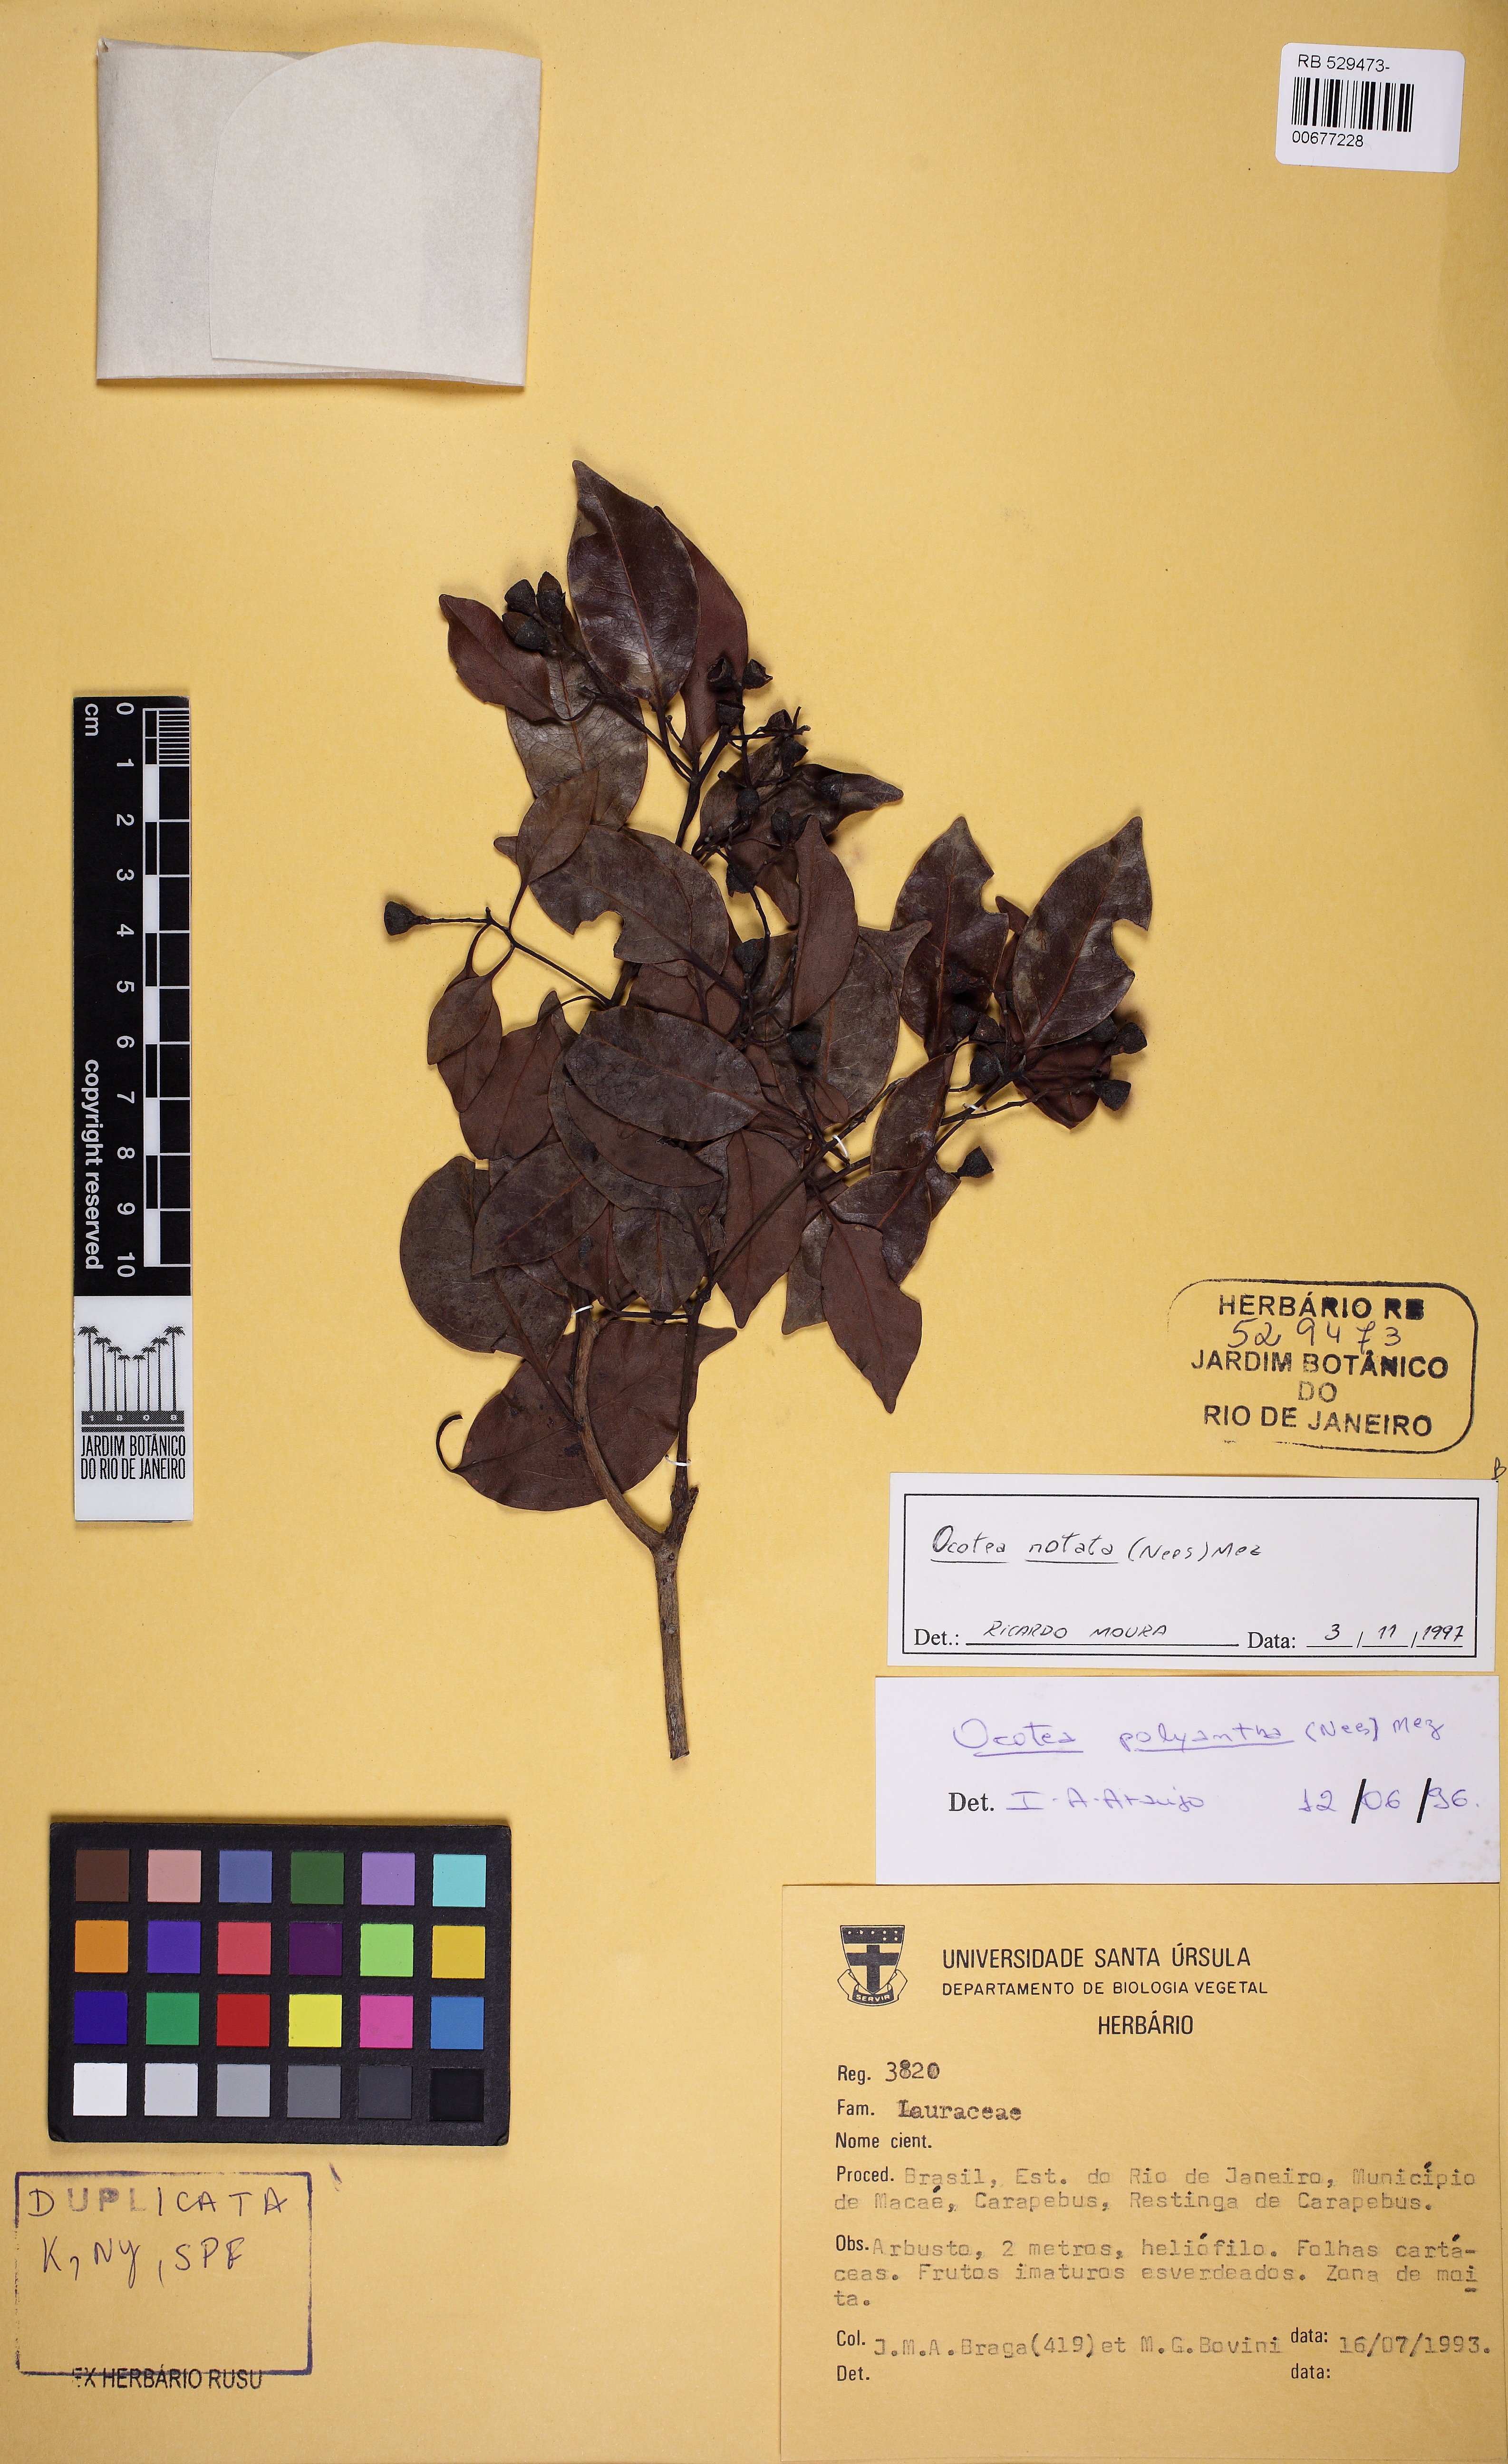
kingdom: Plantae
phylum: Tracheophyta
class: Magnoliopsida
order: Laurales
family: Lauraceae
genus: Mespilodaphne
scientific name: Mespilodaphne notata
